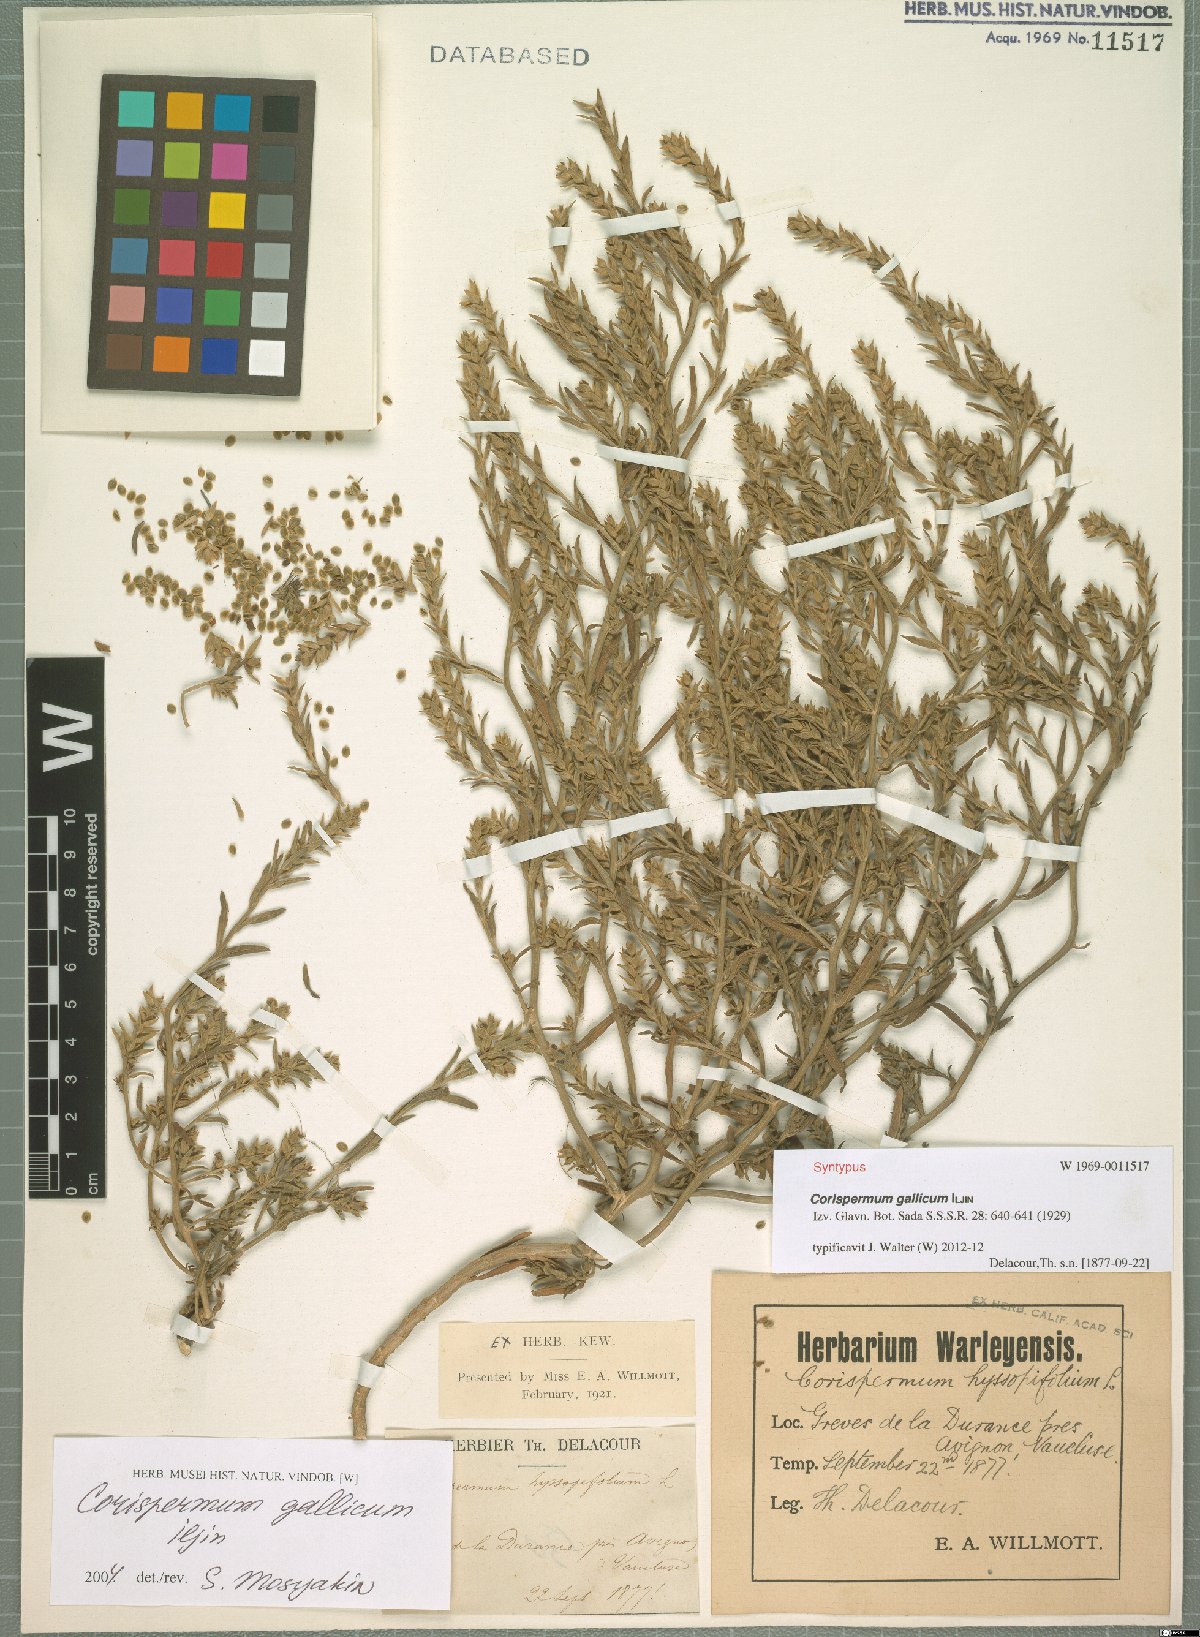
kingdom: Plantae
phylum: Tracheophyta
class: Magnoliopsida
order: Caryophyllales
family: Amaranthaceae
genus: Corispermum
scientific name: Corispermum gallicum
